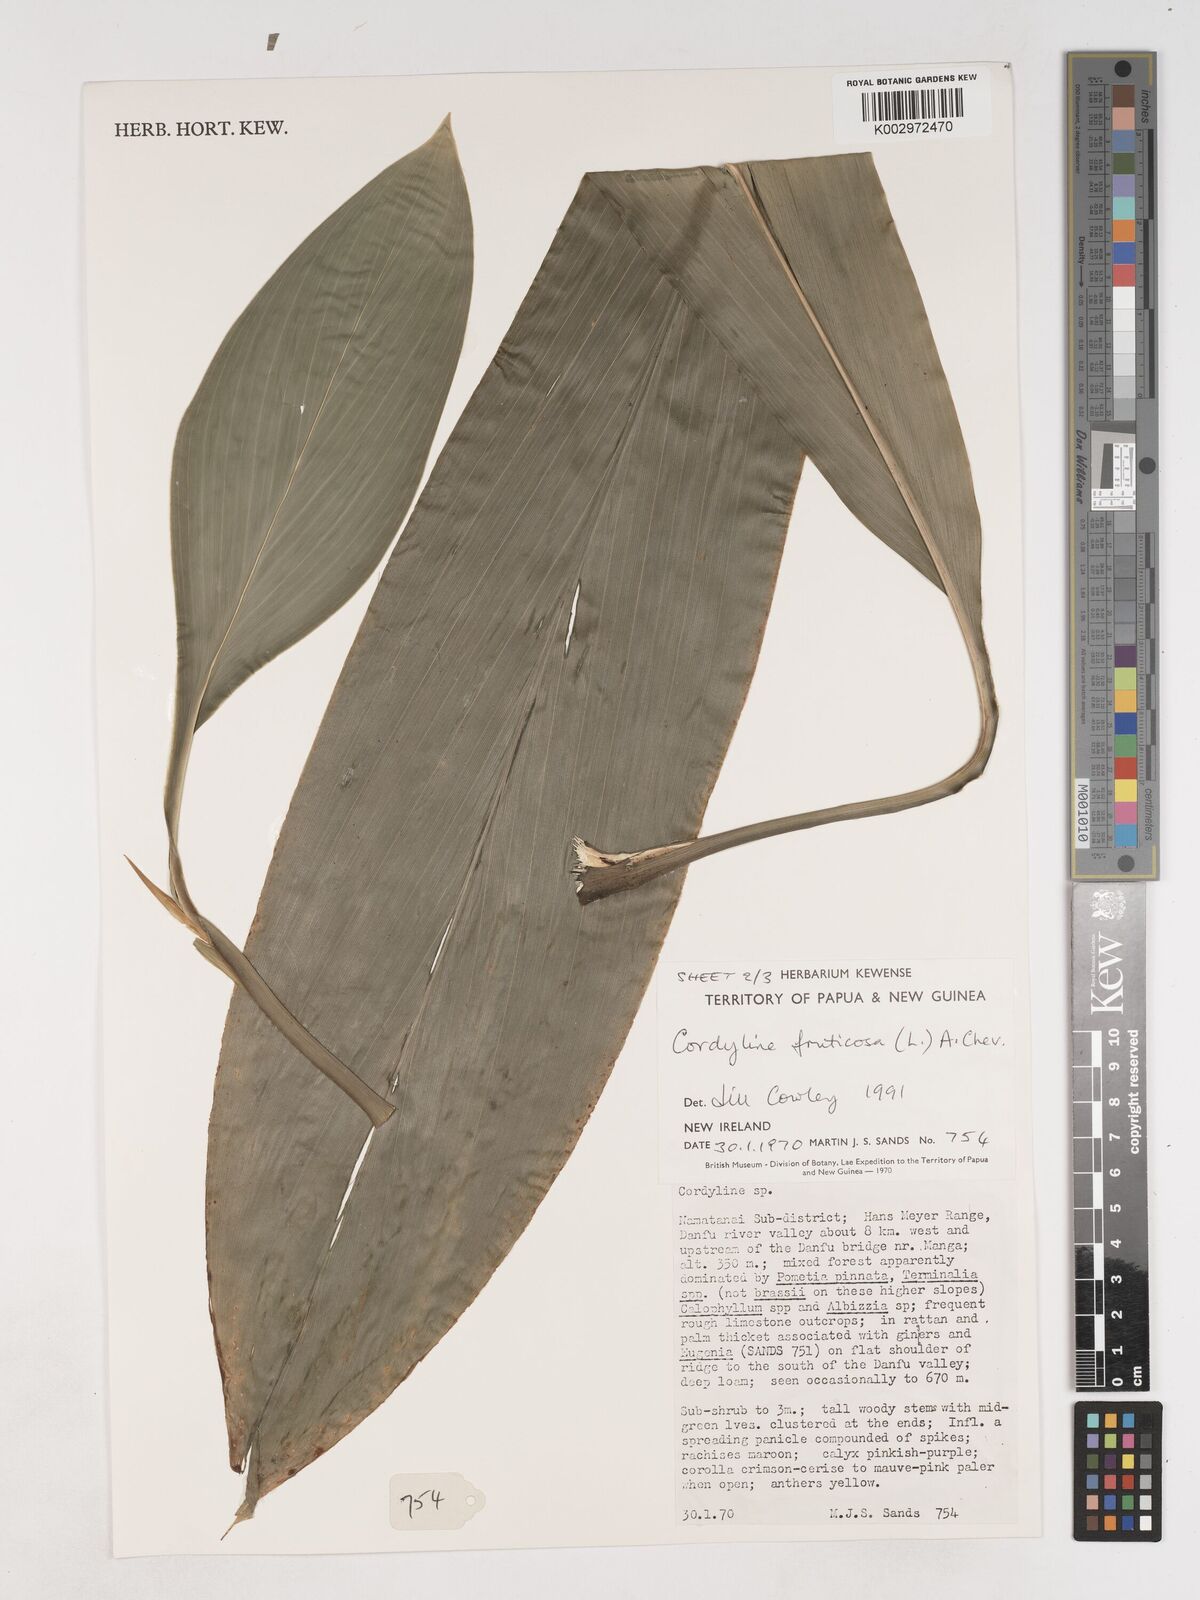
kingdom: Plantae
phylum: Tracheophyta
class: Liliopsida
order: Asparagales
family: Asparagaceae
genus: Cordyline
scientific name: Cordyline fruticosa
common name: Good-luck-plant
